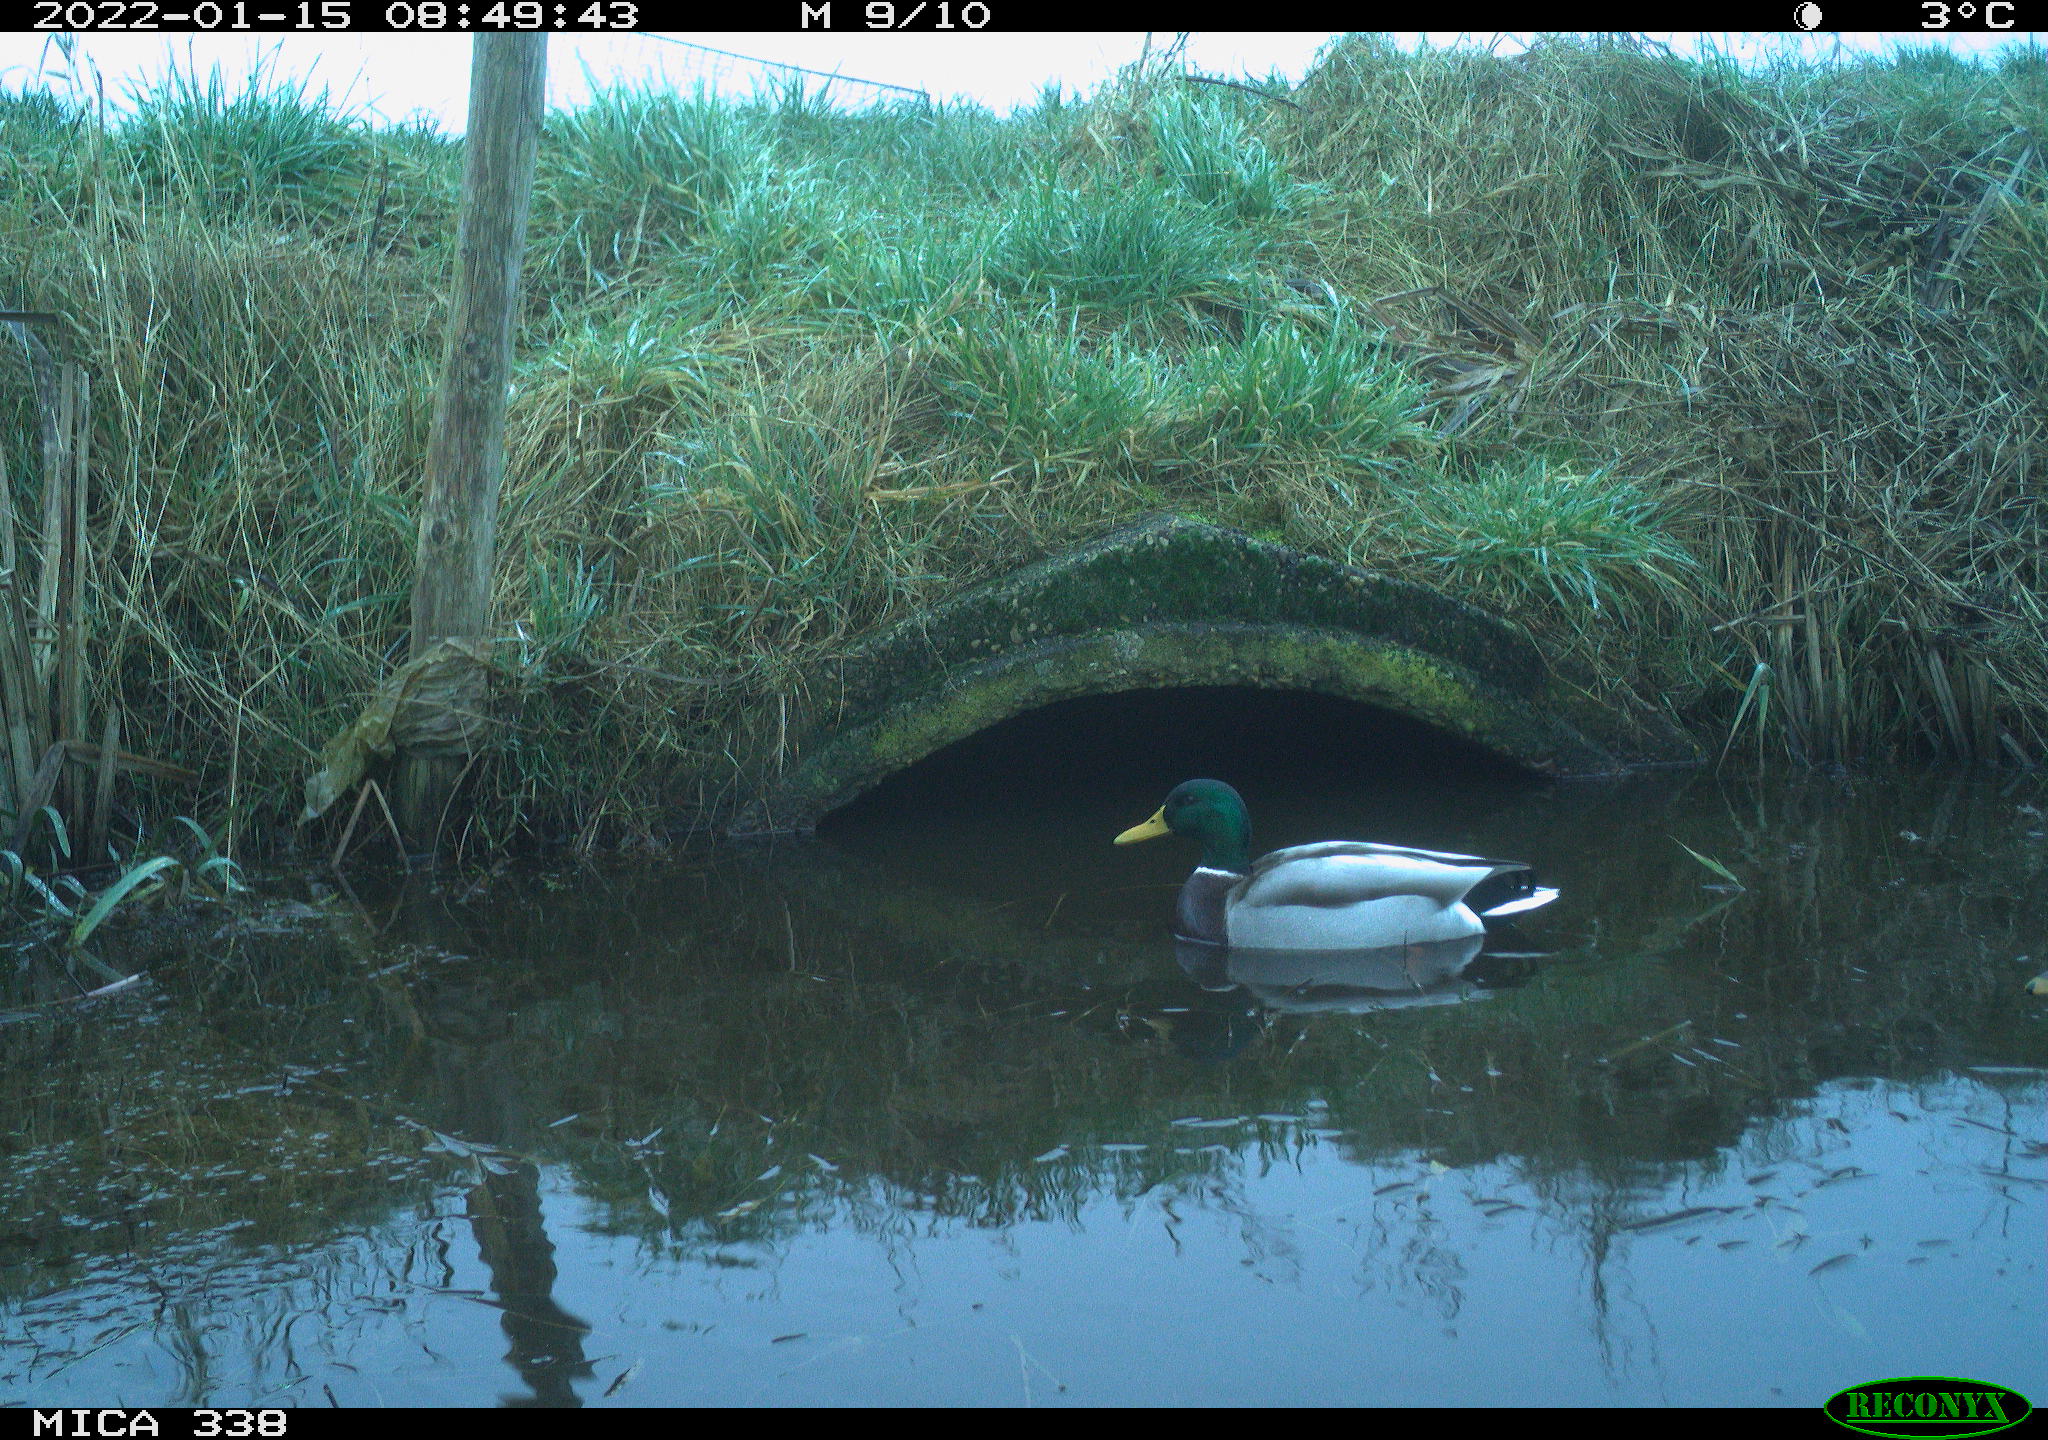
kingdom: Animalia
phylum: Chordata
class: Aves
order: Anseriformes
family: Anatidae
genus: Anas
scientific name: Anas platyrhynchos
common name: Mallard
